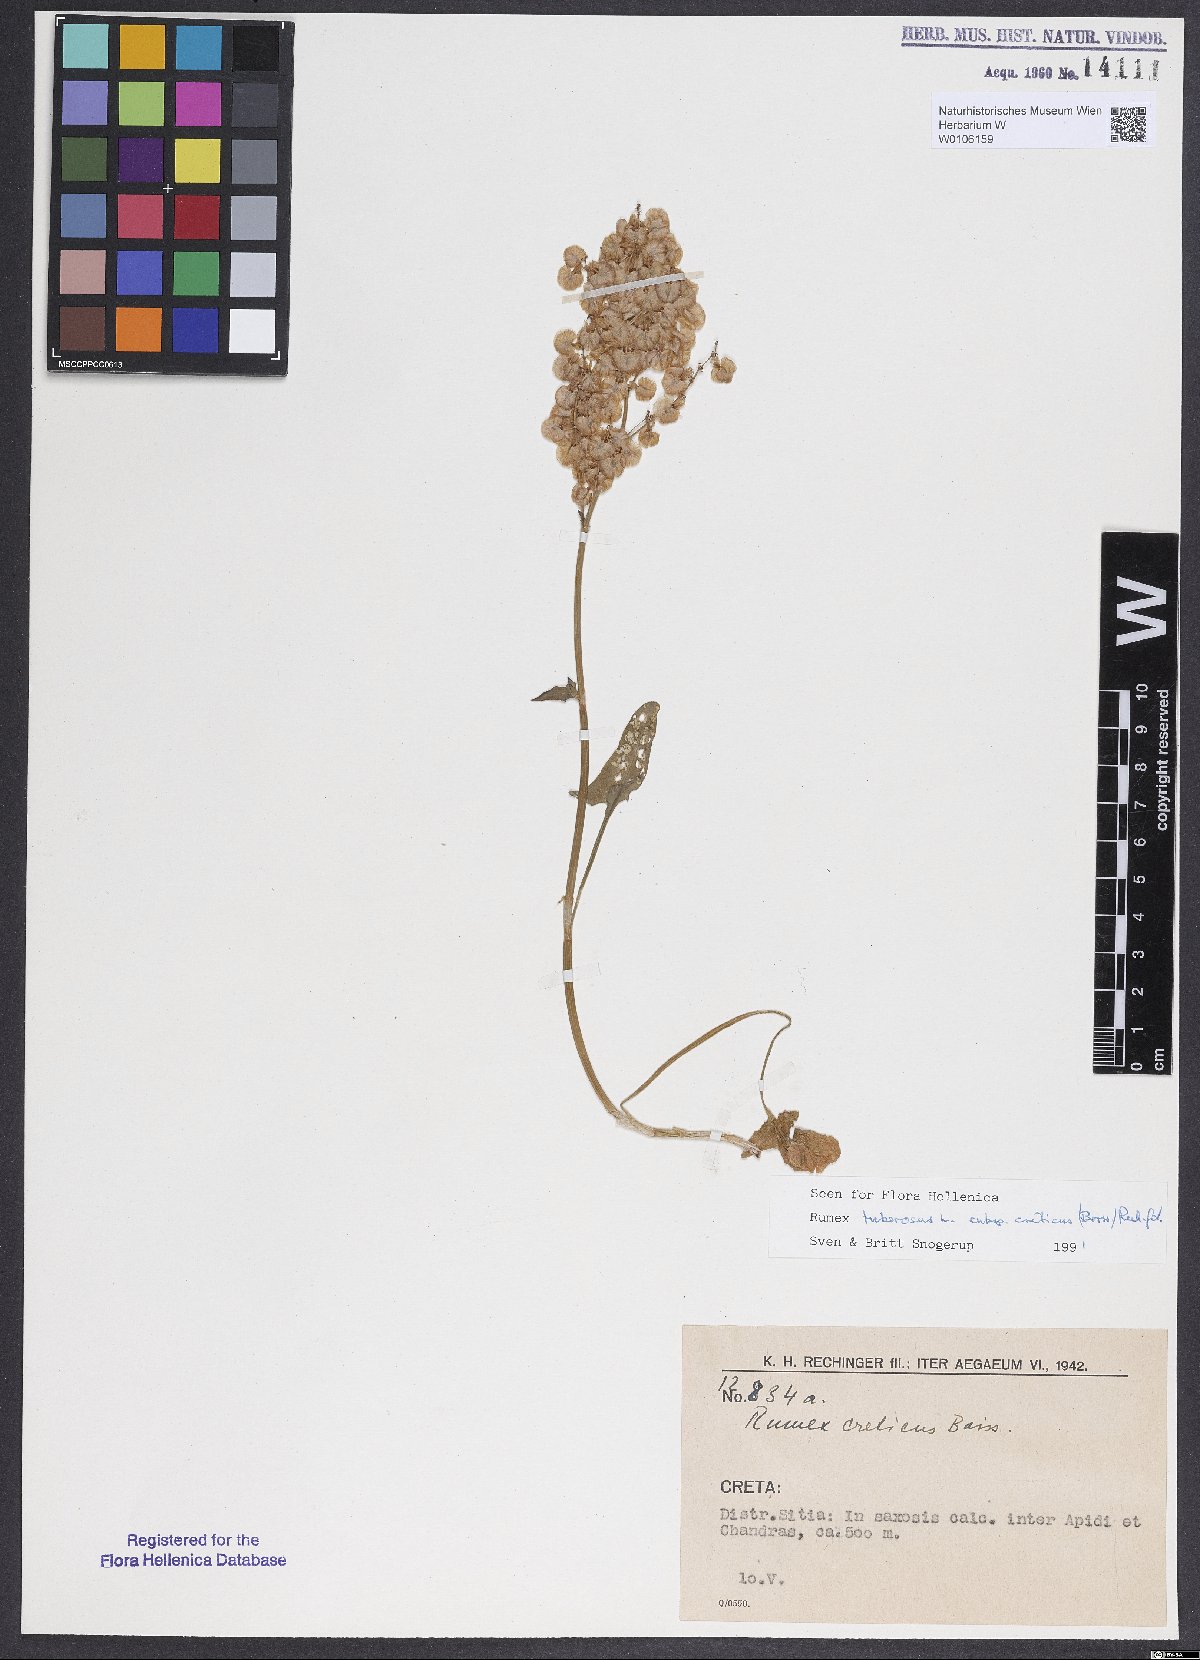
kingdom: Plantae
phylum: Tracheophyta
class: Magnoliopsida
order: Caryophyllales
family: Polygonaceae
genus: Rumex
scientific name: Rumex tuberosus
